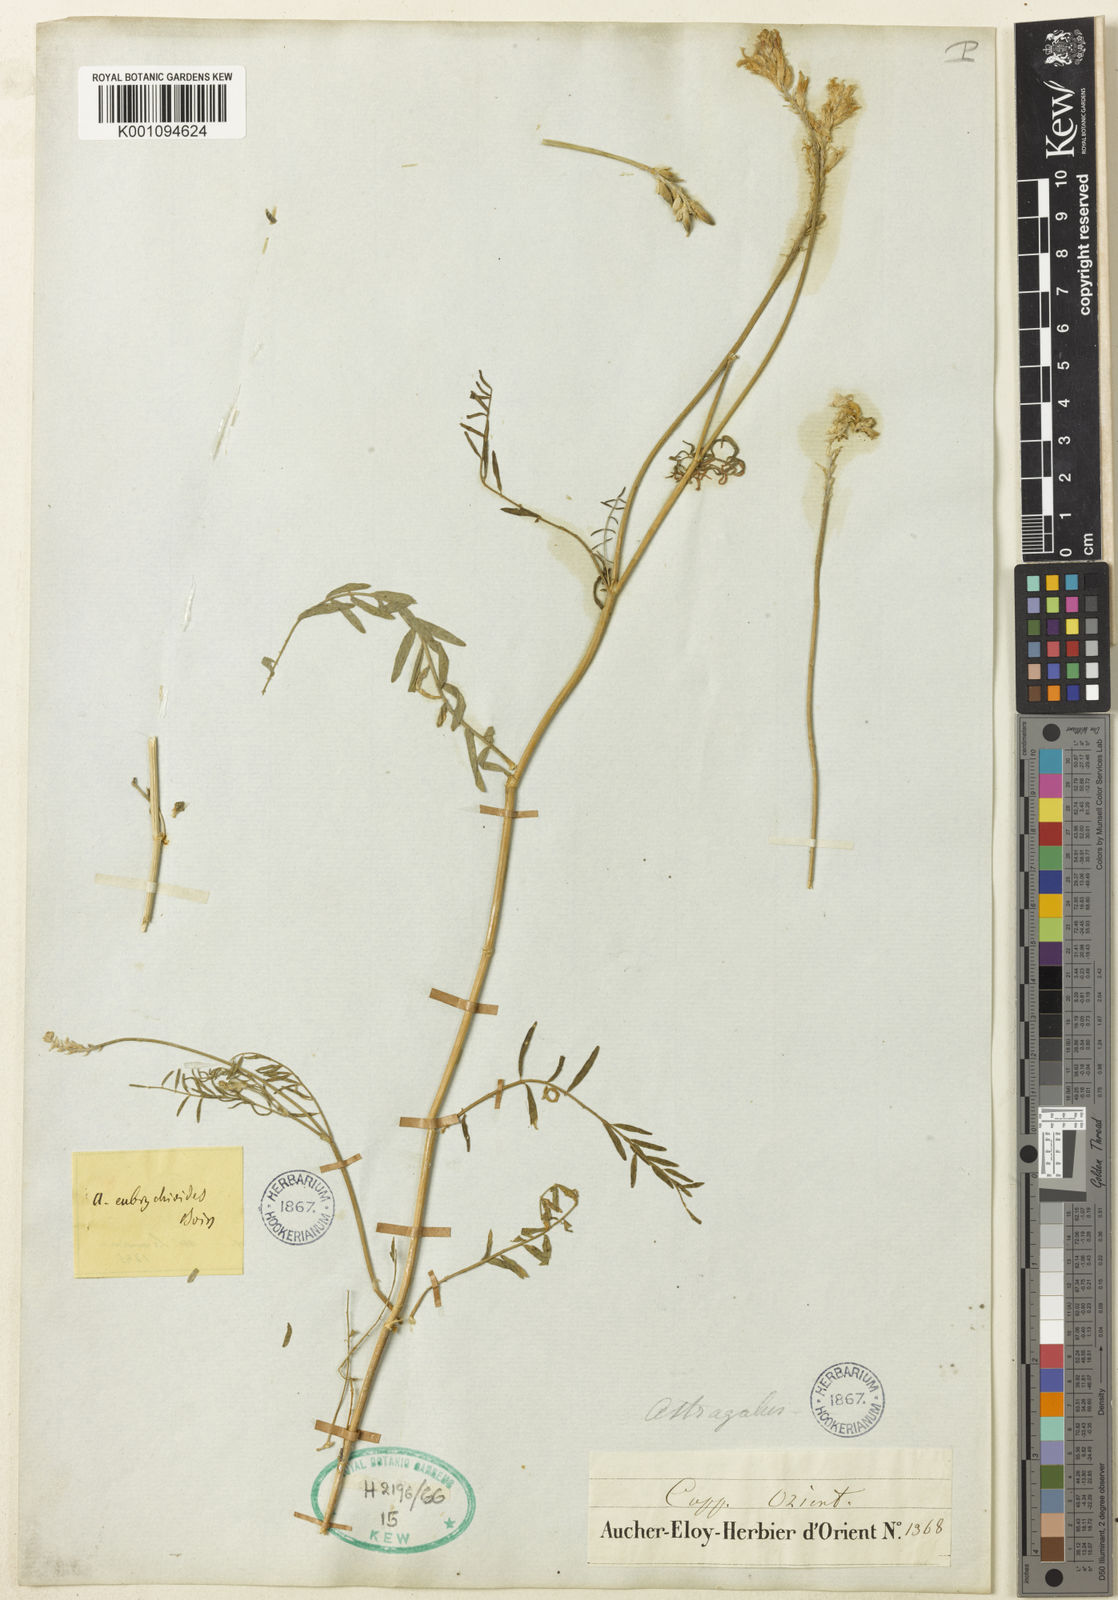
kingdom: Plantae
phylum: Tracheophyta
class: Magnoliopsida
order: Fabales
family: Fabaceae
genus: Astragalus
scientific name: Astragalus eubrychioides
